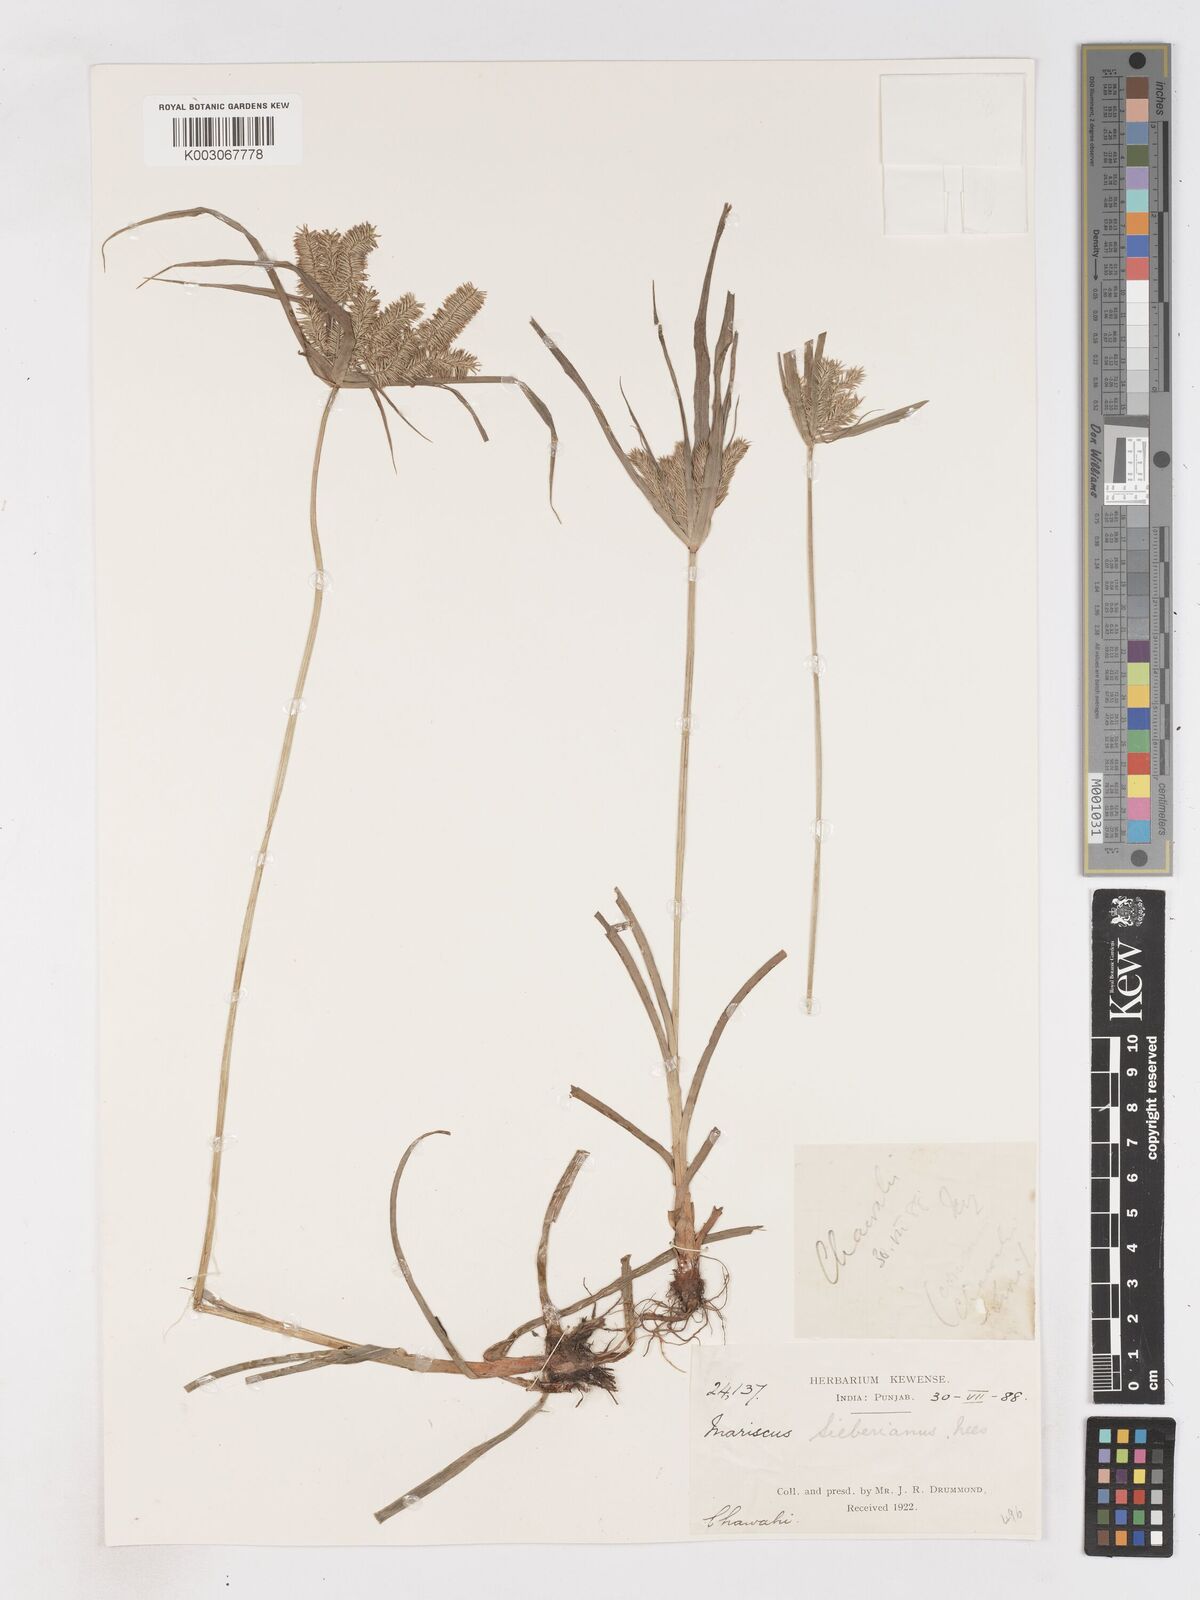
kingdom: Plantae
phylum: Tracheophyta
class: Liliopsida
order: Poales
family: Cyperaceae
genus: Cyperus
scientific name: Cyperus cyperoides
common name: Pacific island flat sedge
